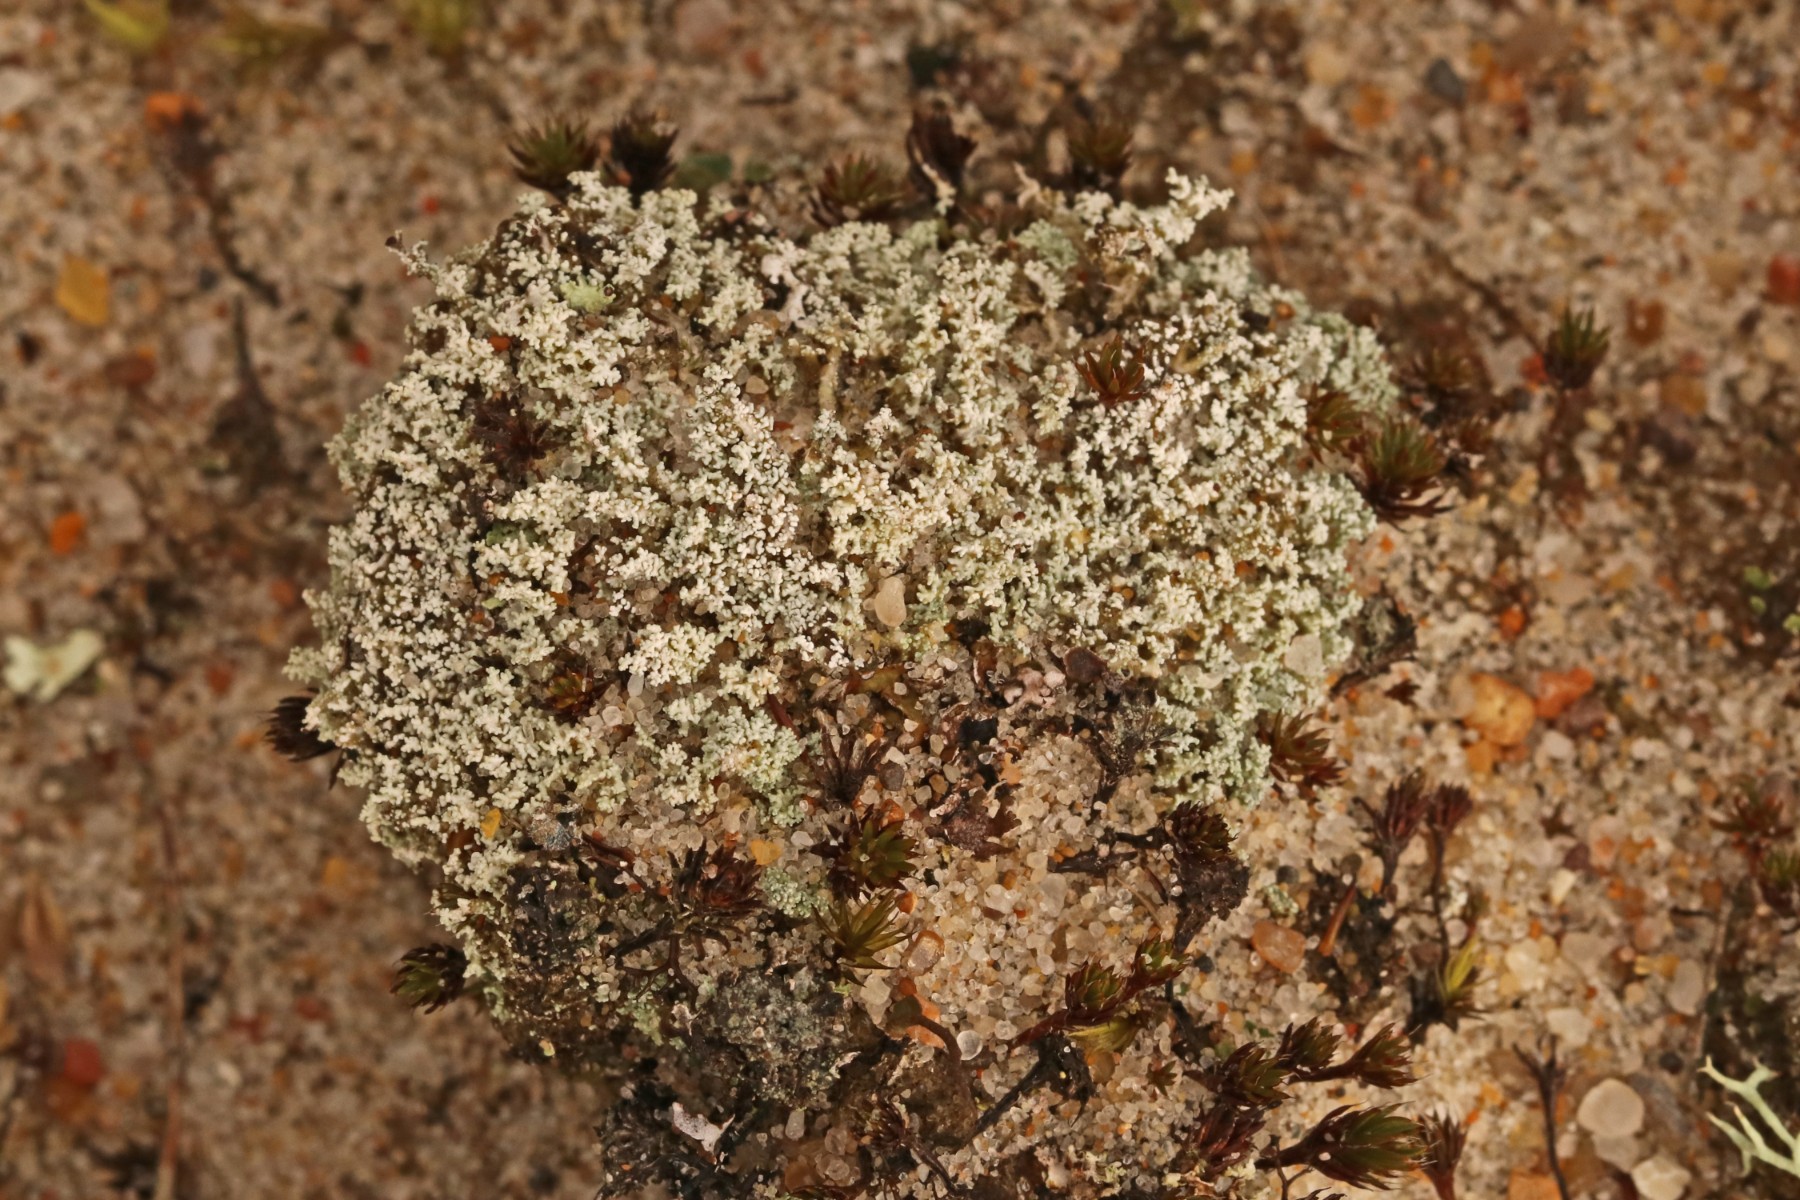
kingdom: Fungi
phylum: Ascomycota
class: Lecanoromycetes
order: Lecanorales
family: Stereocaulaceae
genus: Stereocaulon
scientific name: Stereocaulon condensatum
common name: lav korallav
